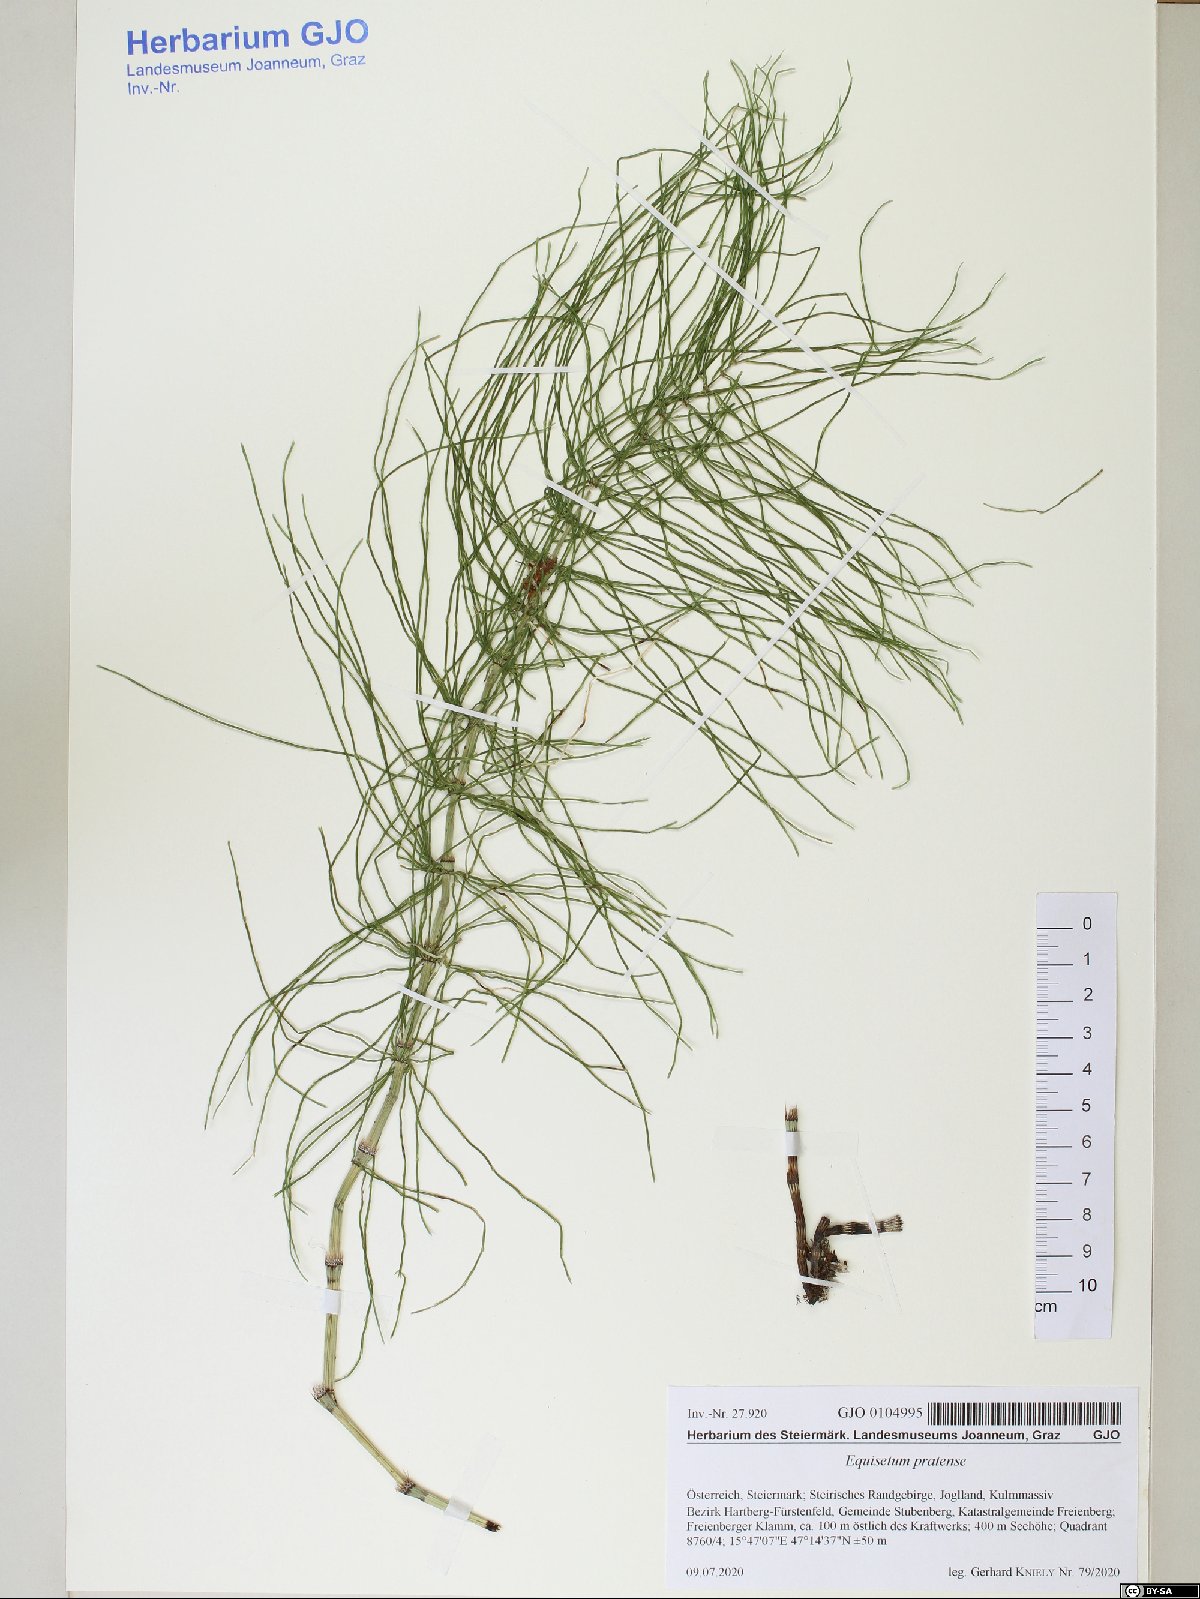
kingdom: Plantae
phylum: Tracheophyta
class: Polypodiopsida
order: Equisetales
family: Equisetaceae
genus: Equisetum
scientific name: Equisetum pratense
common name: Meadow horsetail
